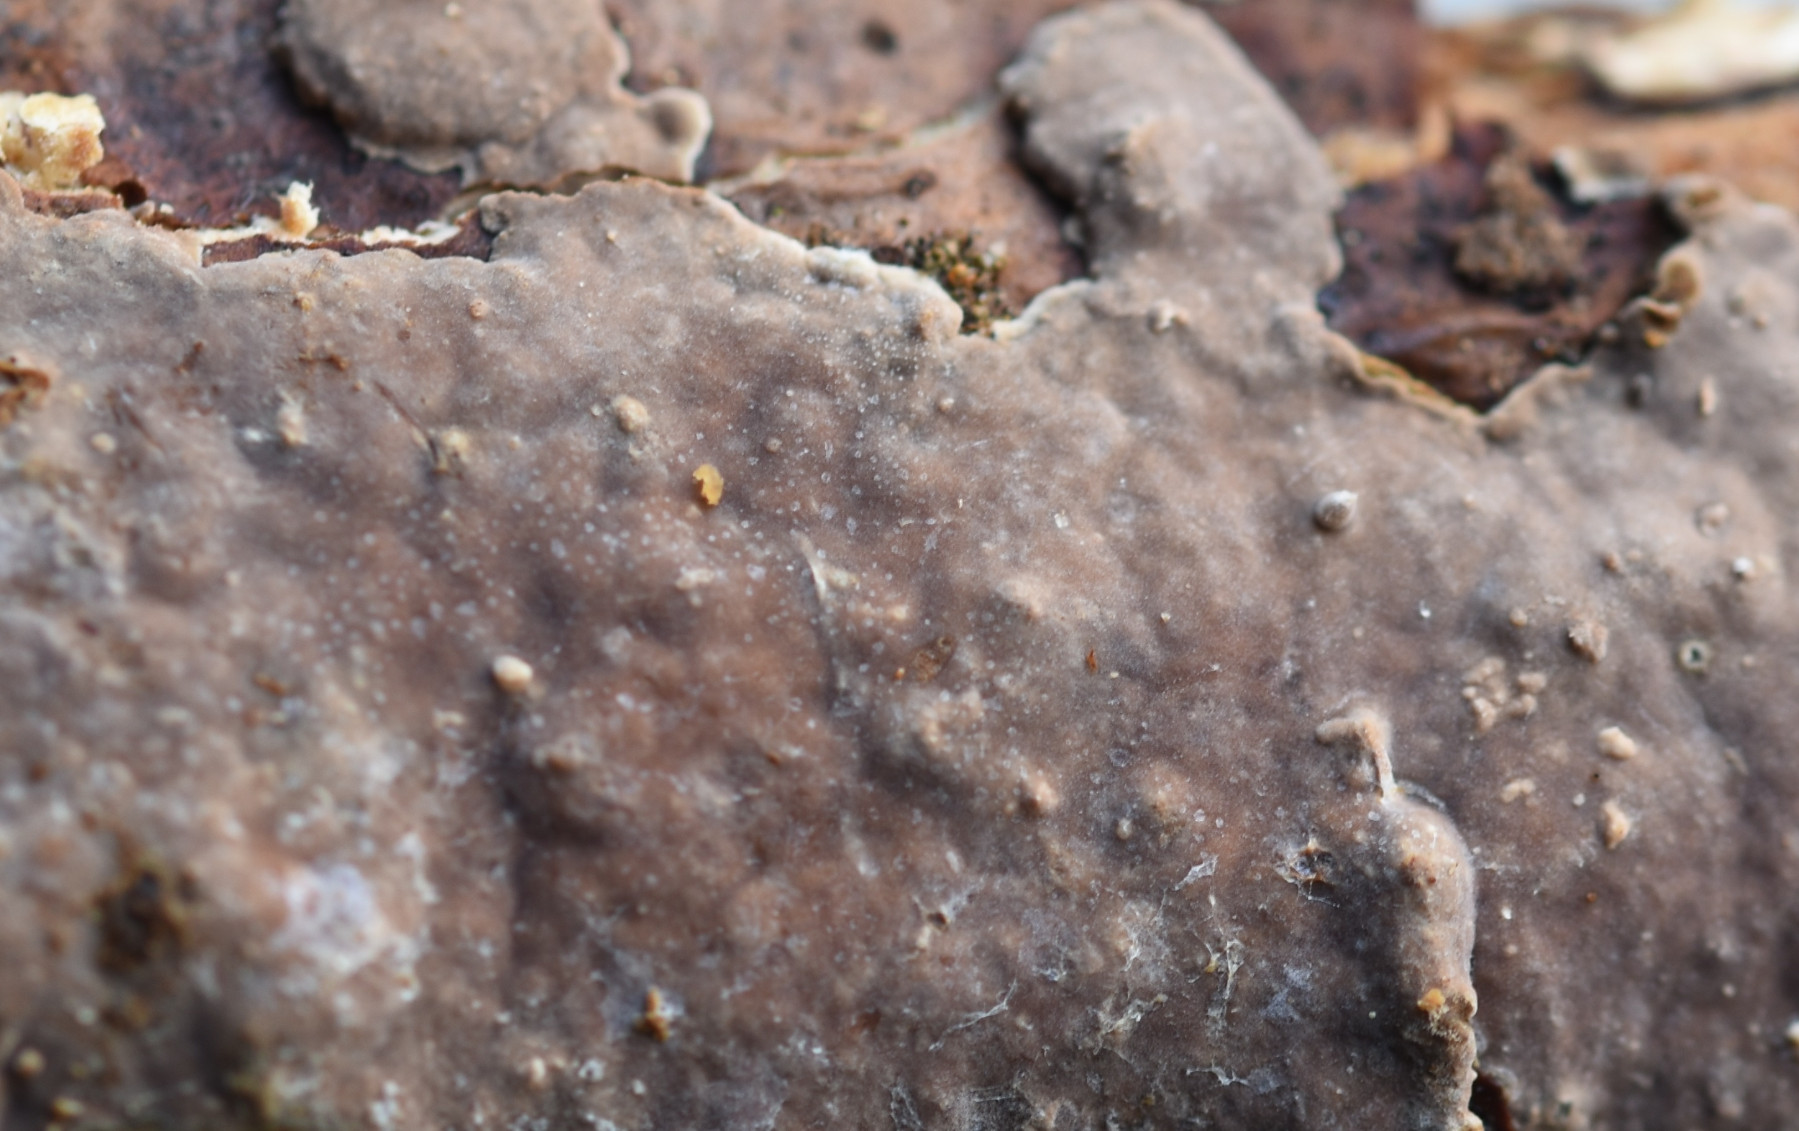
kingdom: Fungi
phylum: Basidiomycota
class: Agaricomycetes
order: Russulales
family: Echinodontiaceae
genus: Amylostereum
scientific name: Amylostereum chailletii
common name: gran-lædersvamp
